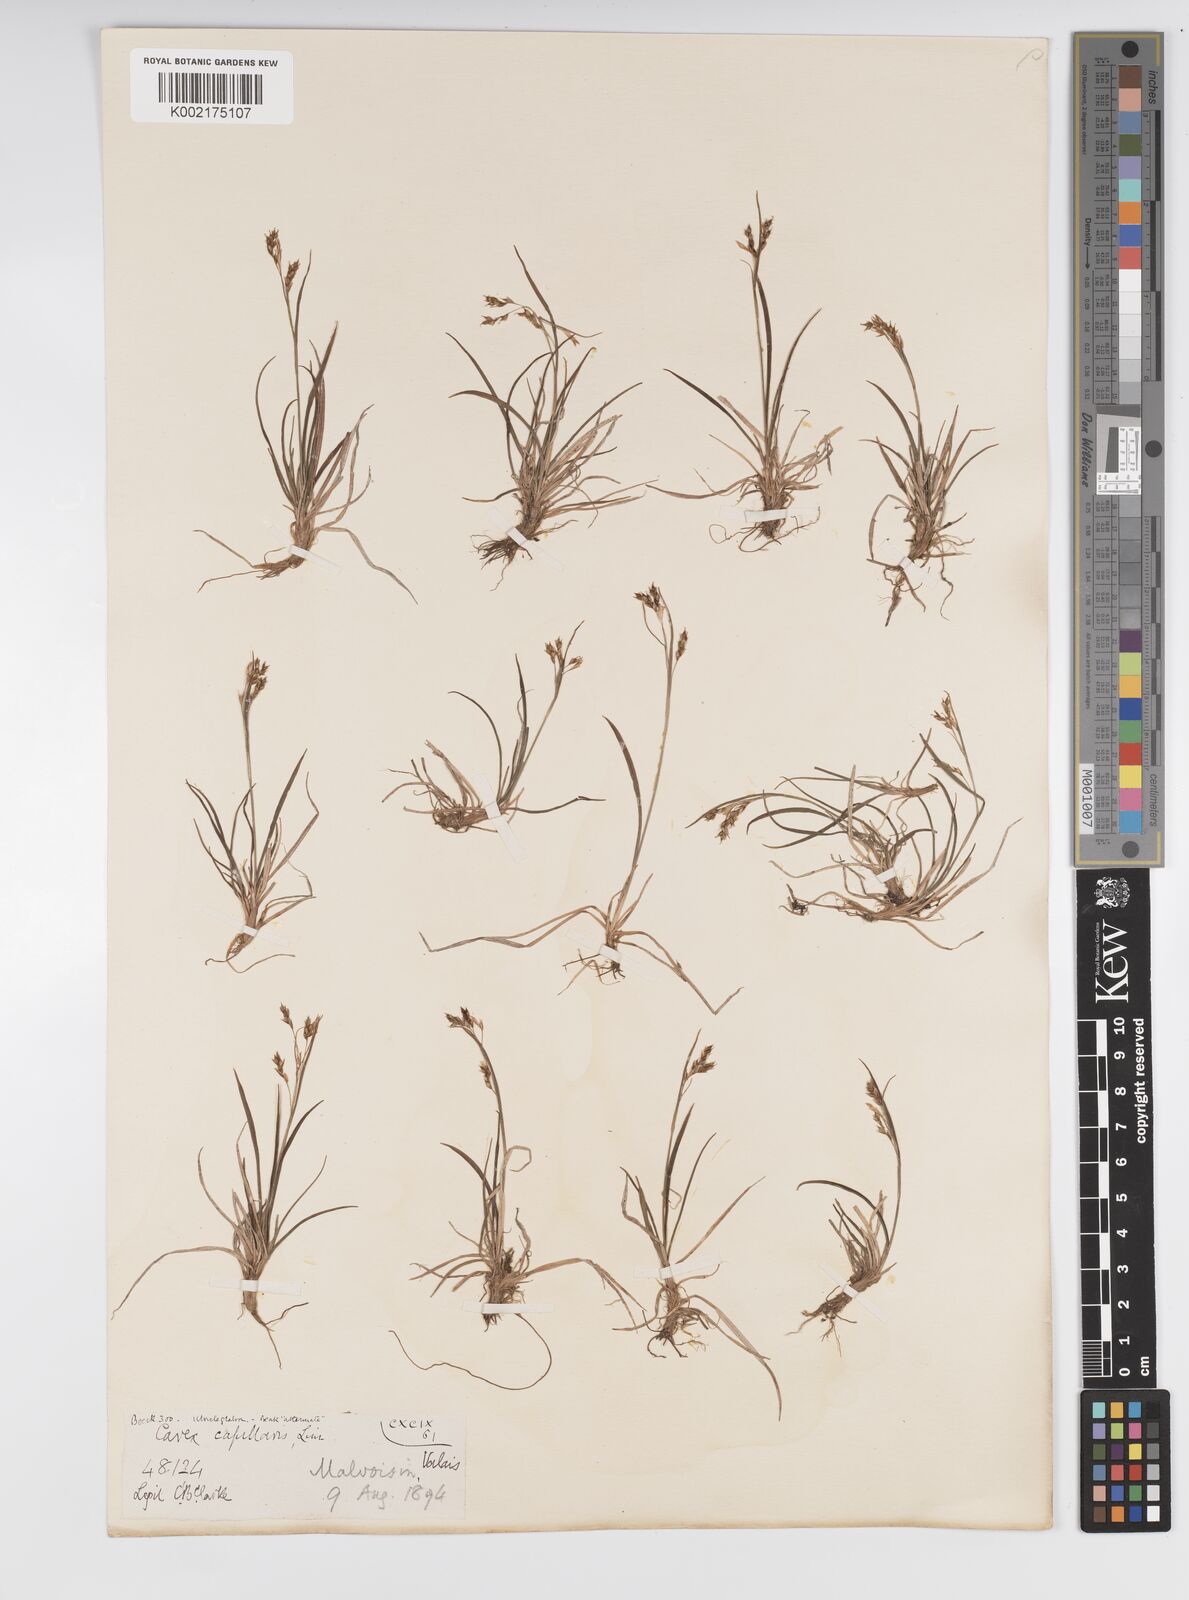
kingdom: Plantae
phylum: Tracheophyta
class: Liliopsida
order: Poales
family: Cyperaceae
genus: Carex
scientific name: Carex capillaris
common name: Hair sedge
